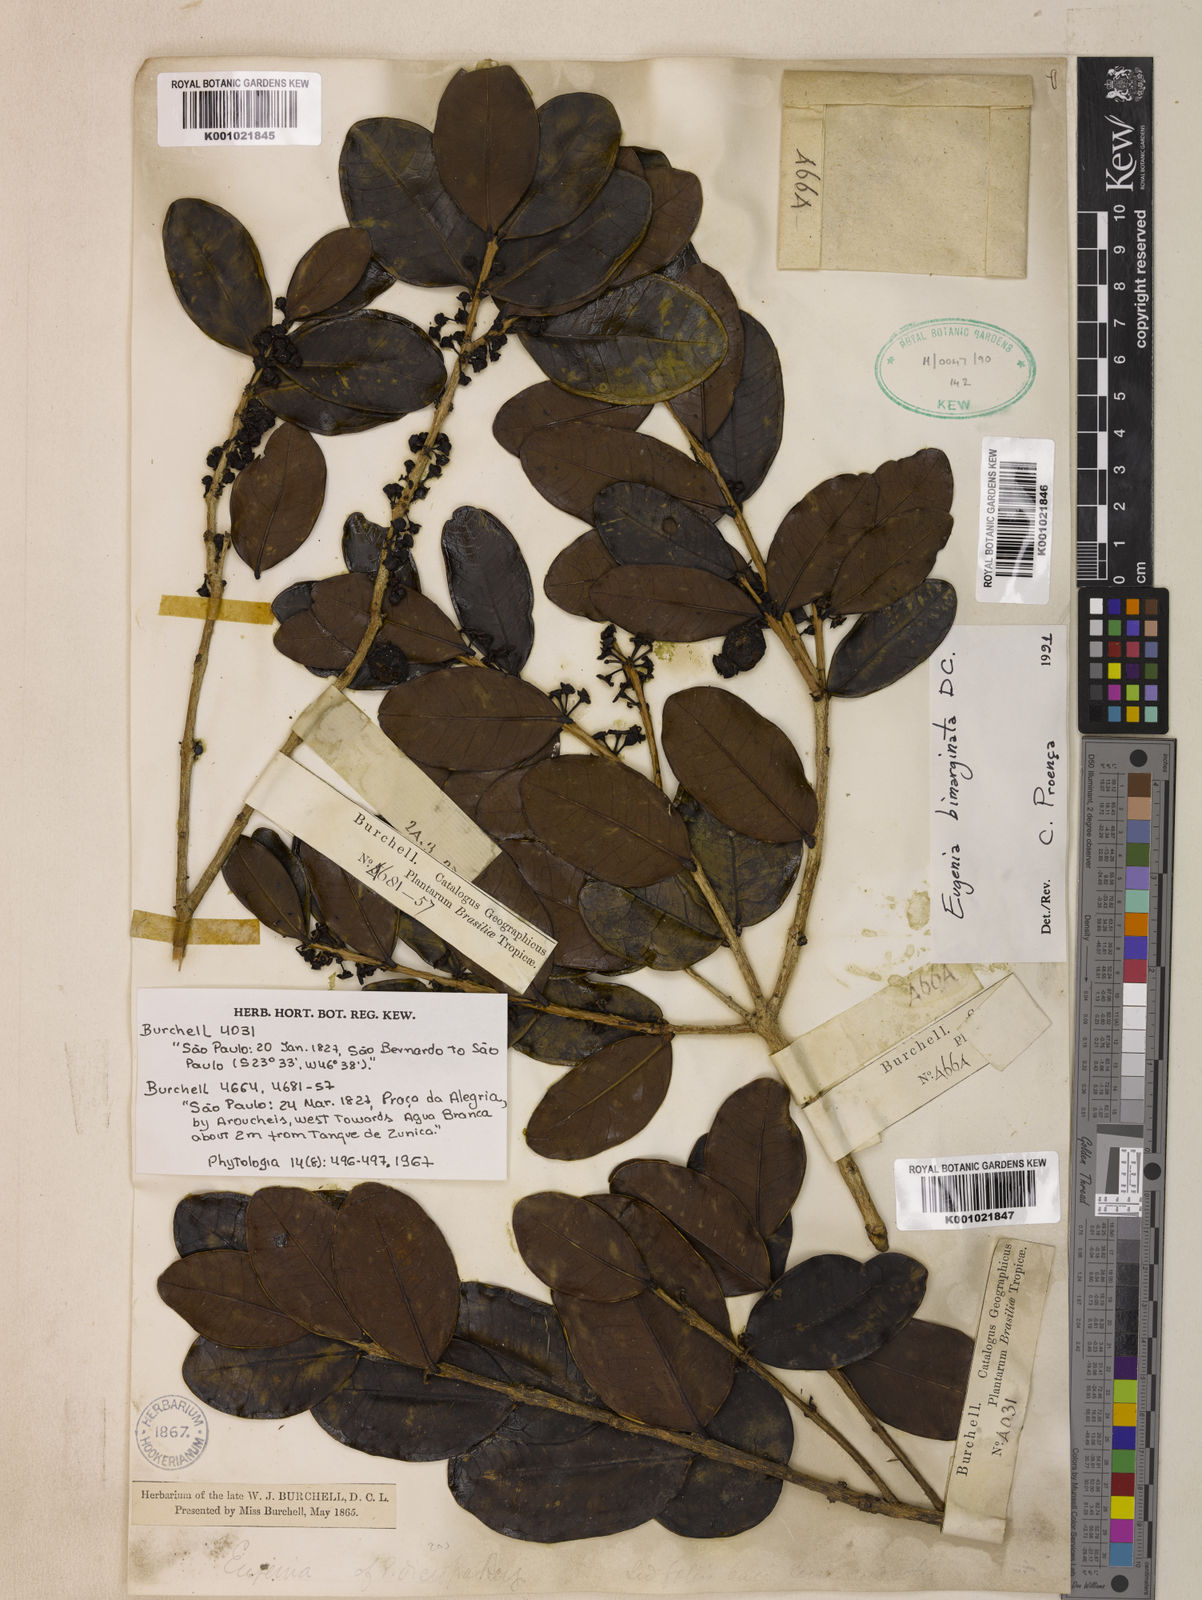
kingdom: Plantae
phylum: Tracheophyta
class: Magnoliopsida
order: Myrtales
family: Myrtaceae
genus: Eugenia
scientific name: Eugenia bimarginata
